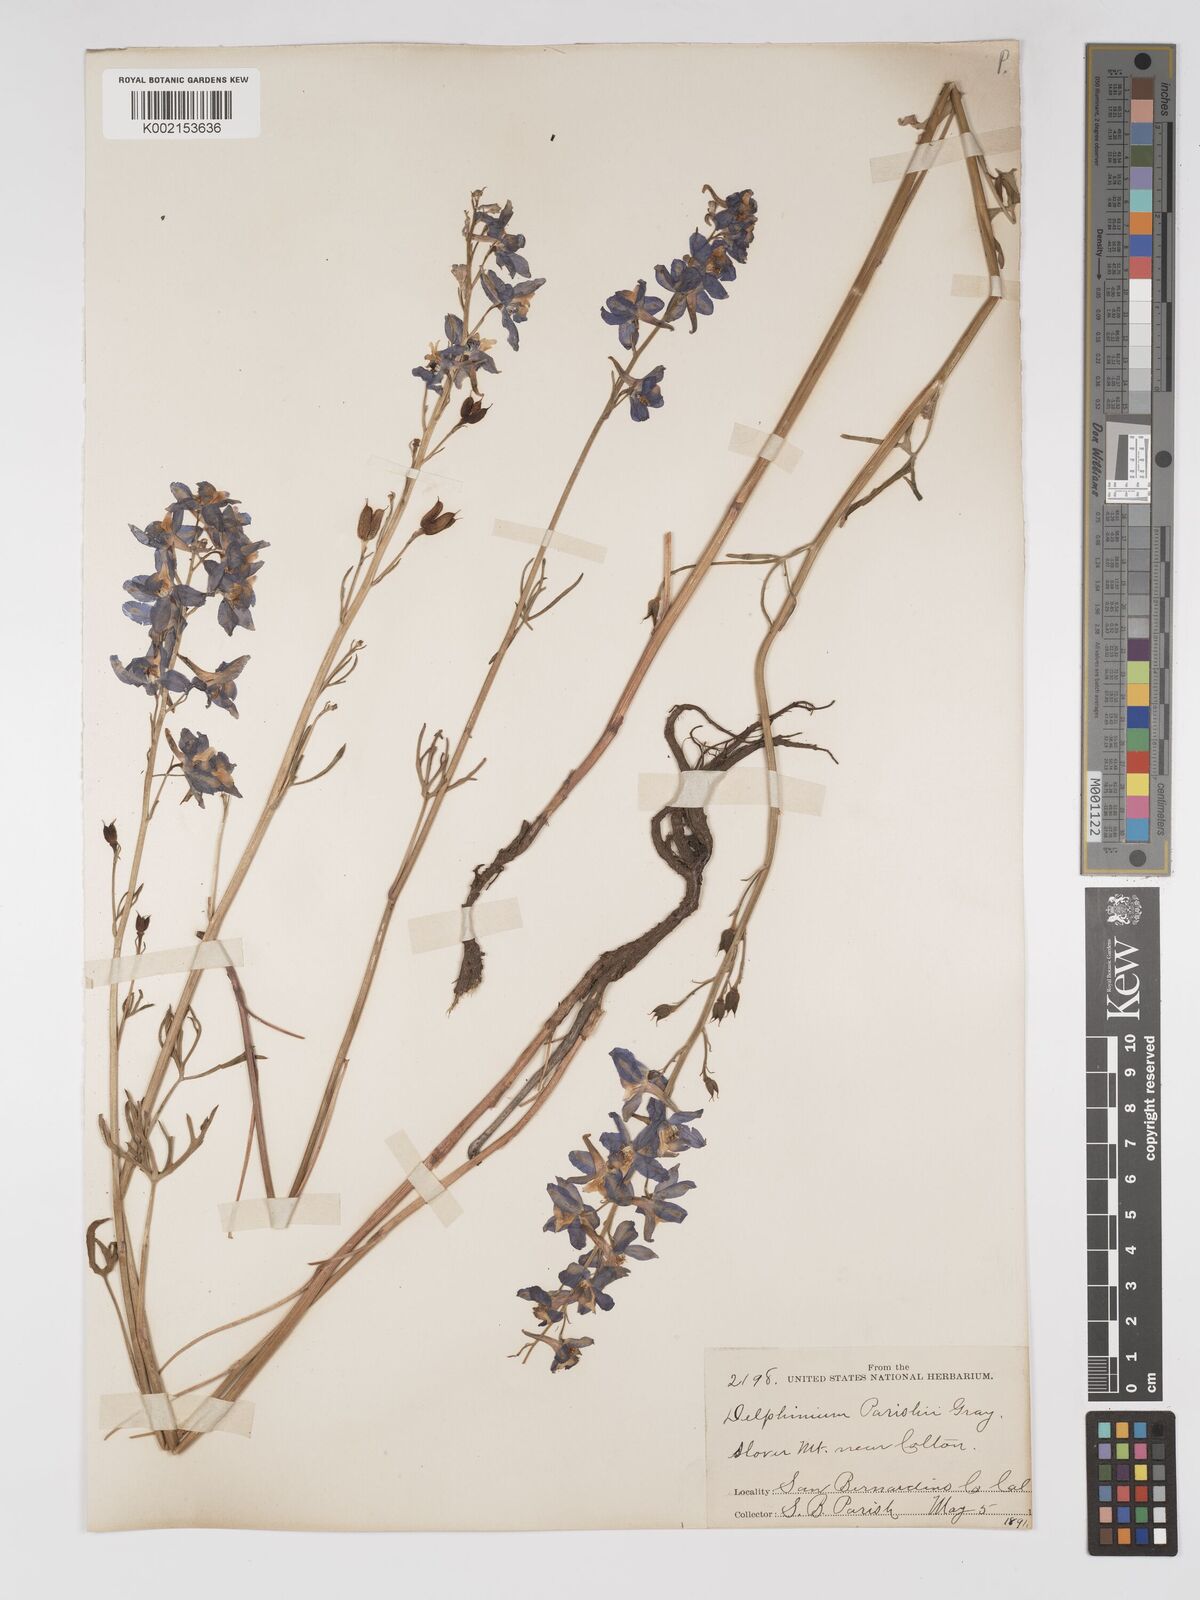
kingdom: Plantae
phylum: Tracheophyta
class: Magnoliopsida
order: Ranunculales
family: Ranunculaceae
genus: Delphinium
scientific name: Delphinium parishii
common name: Apache larkspur
